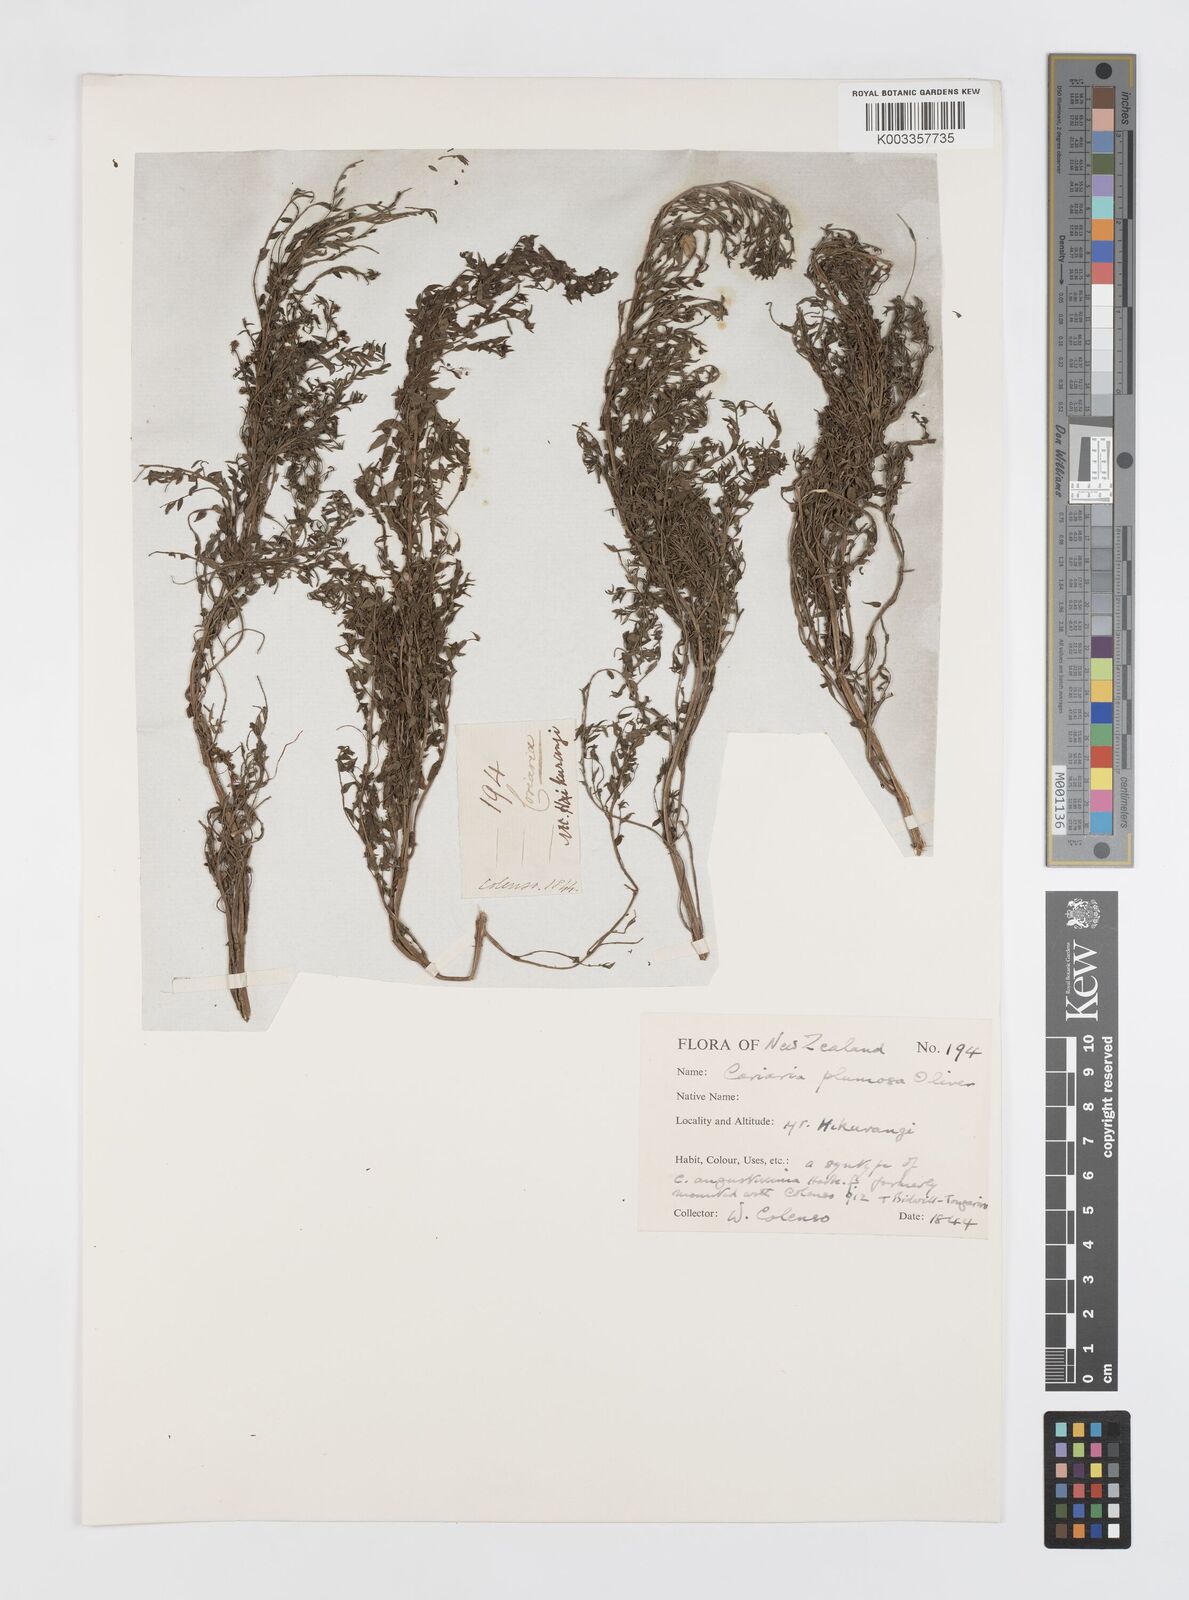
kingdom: Plantae
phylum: Tracheophyta
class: Magnoliopsida
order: Cucurbitales
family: Coriariaceae
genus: Coriaria
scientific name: Coriaria plumosa
